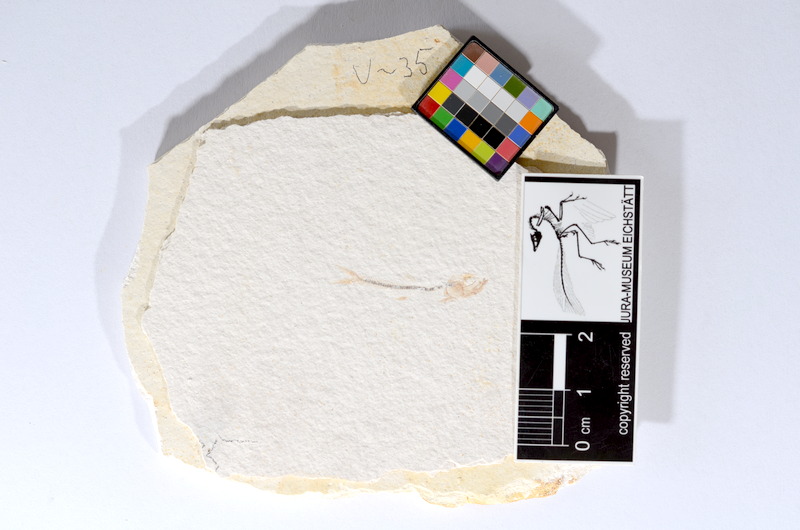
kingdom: Animalia
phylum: Chordata
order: Salmoniformes
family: Orthogonikleithridae
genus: Orthogonikleithrus
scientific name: Orthogonikleithrus hoelli
